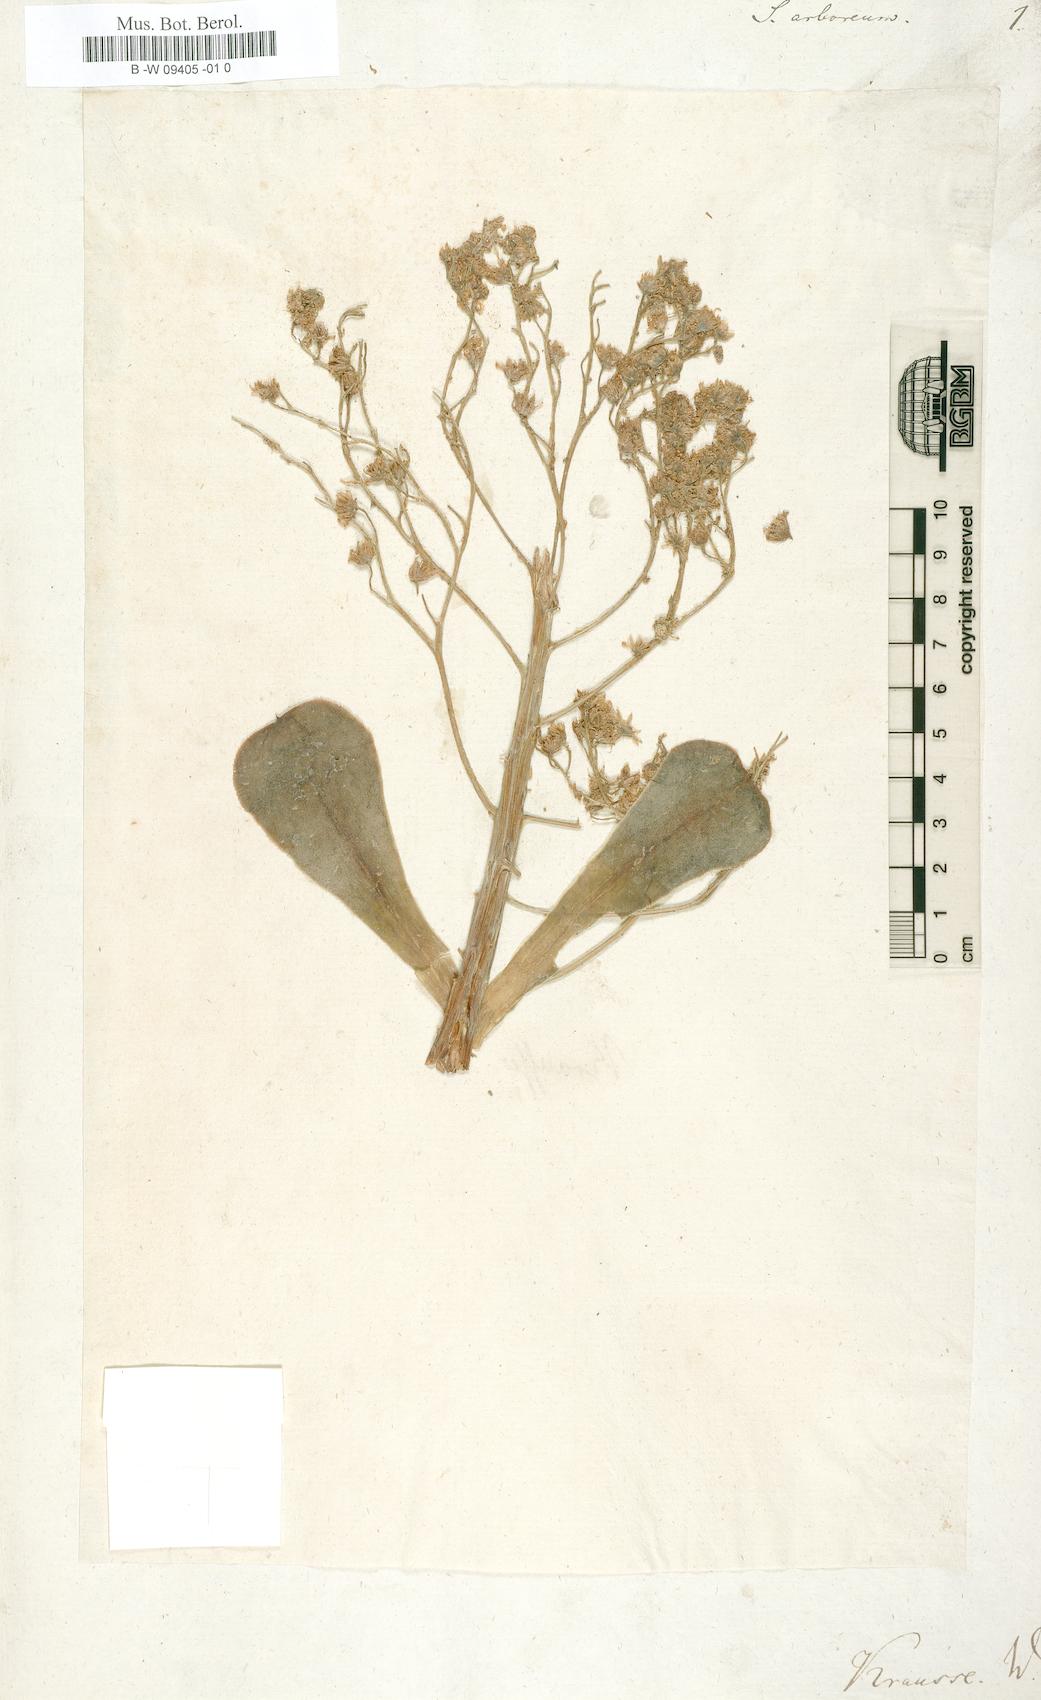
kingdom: Plantae
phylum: Tracheophyta
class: Magnoliopsida
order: Saxifragales
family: Crassulaceae
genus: Aeonium
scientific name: Aeonium arboreum
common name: Tree aeonium
